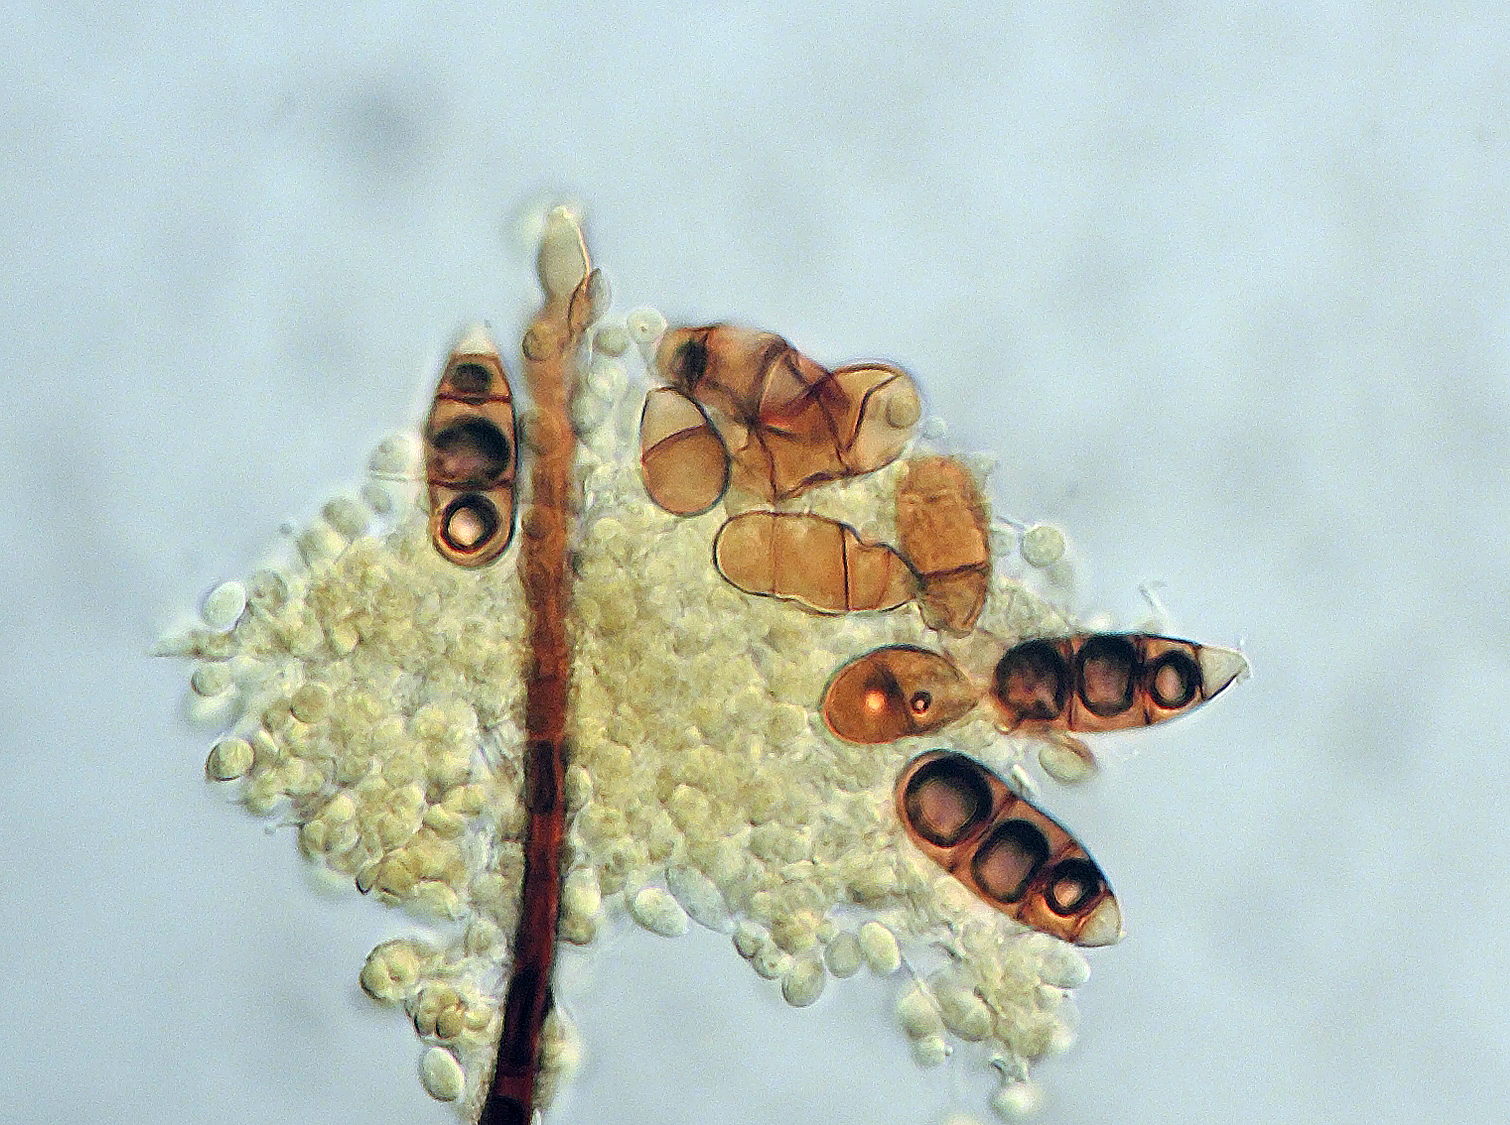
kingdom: Fungi
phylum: Ascomycota
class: Sordariomycetes
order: Trichosphaeriales
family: Trichosphaeriaceae
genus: Brachysporium
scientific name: Brachysporium nigrum
